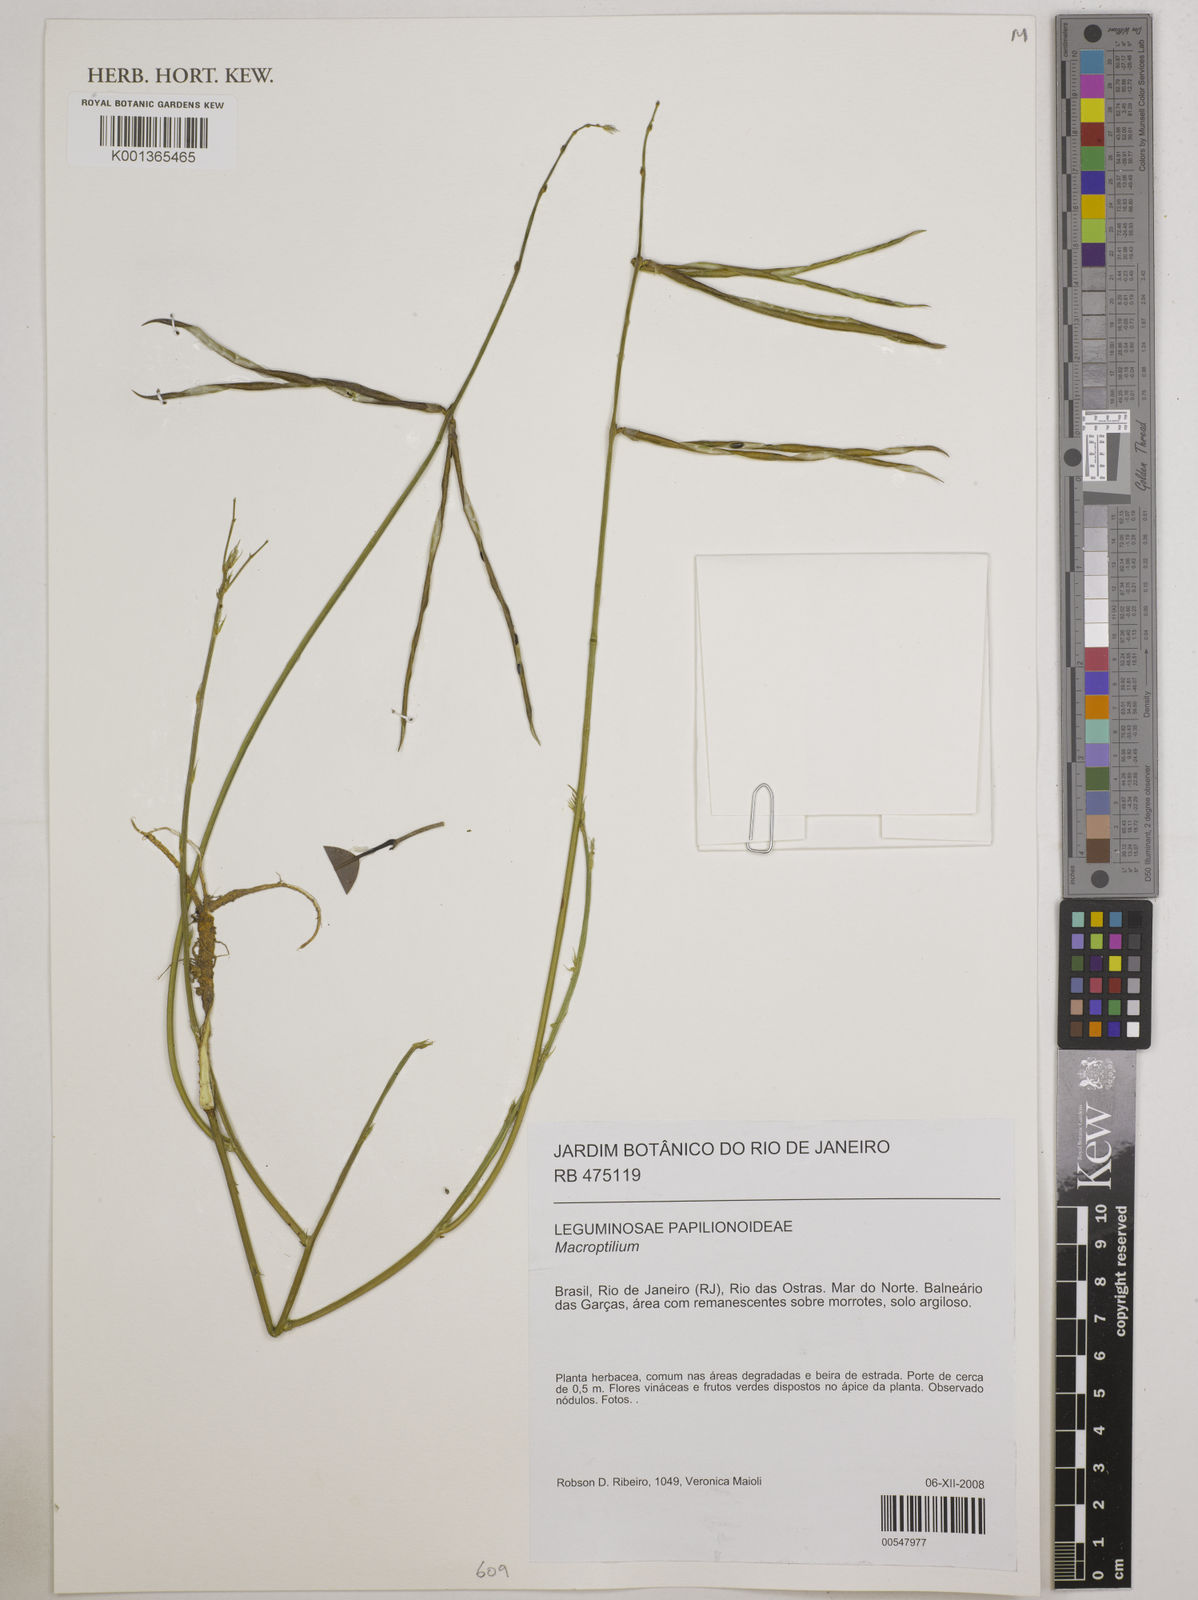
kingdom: Plantae
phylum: Tracheophyta
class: Magnoliopsida
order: Fabales
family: Fabaceae
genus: Macroptilium
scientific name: Macroptilium
